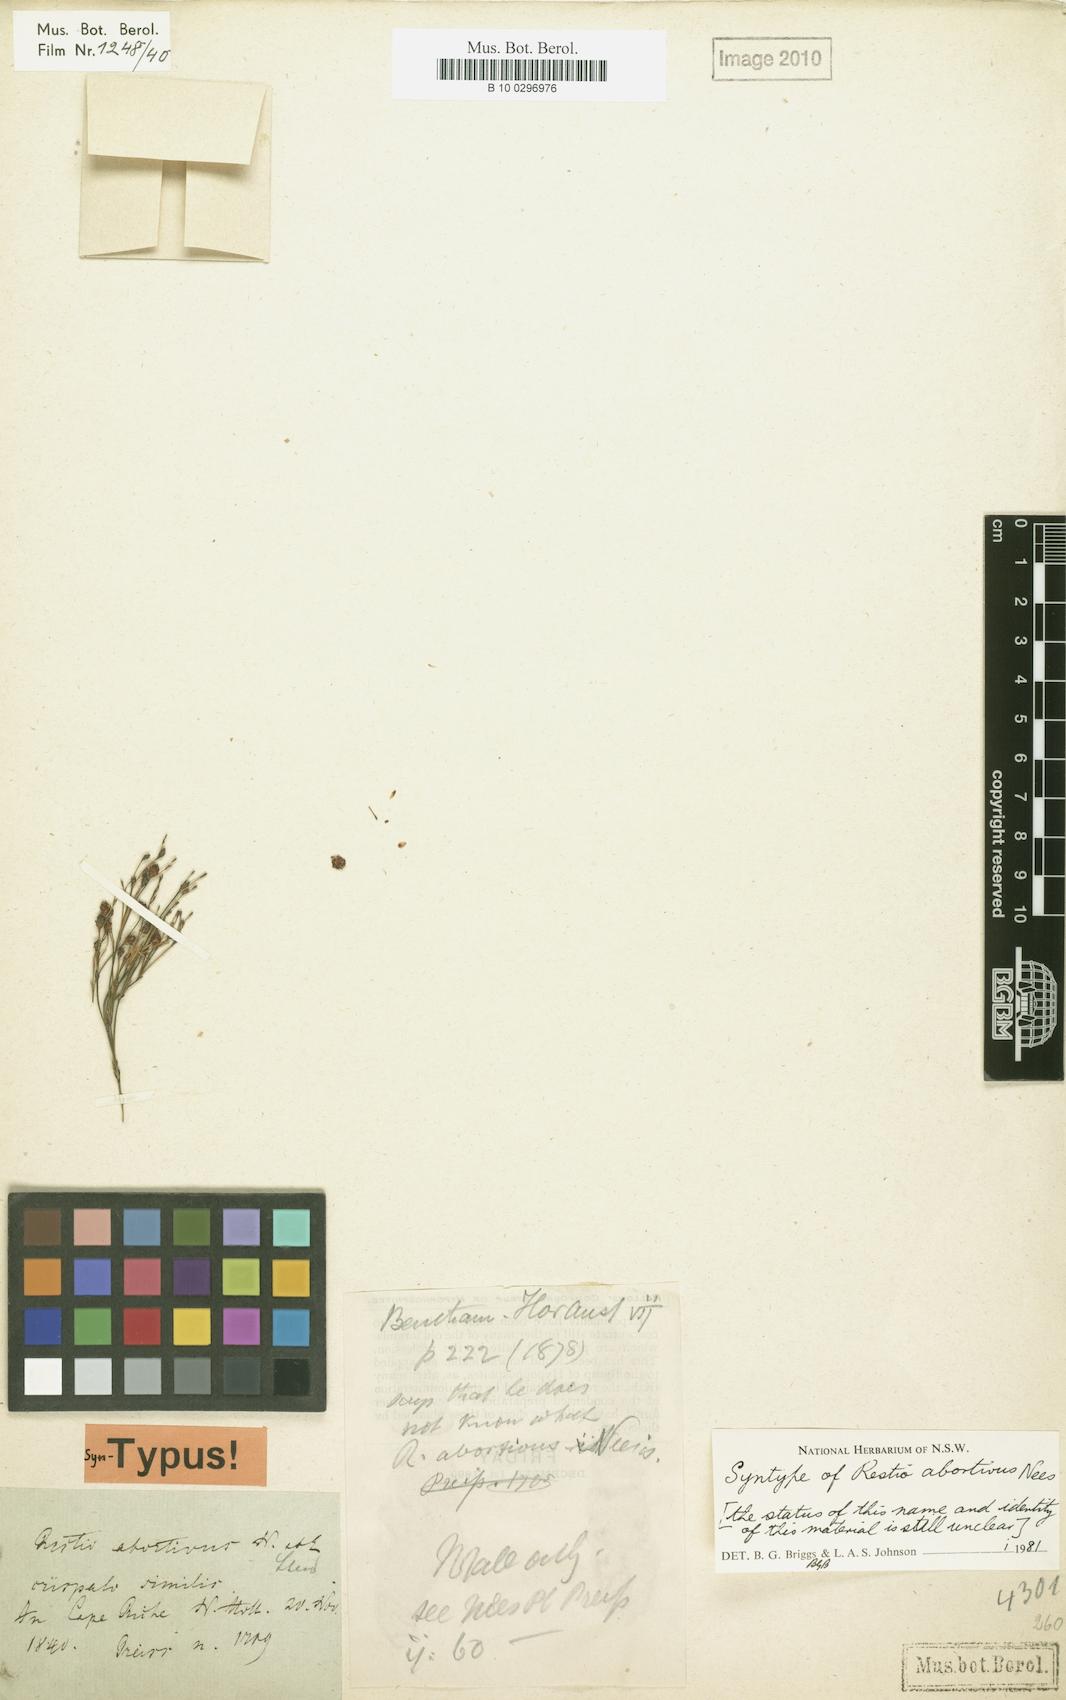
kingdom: Plantae
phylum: Tracheophyta
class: Liliopsida
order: Poales
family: Restionaceae
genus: Chordifex
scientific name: Chordifex abortivus
